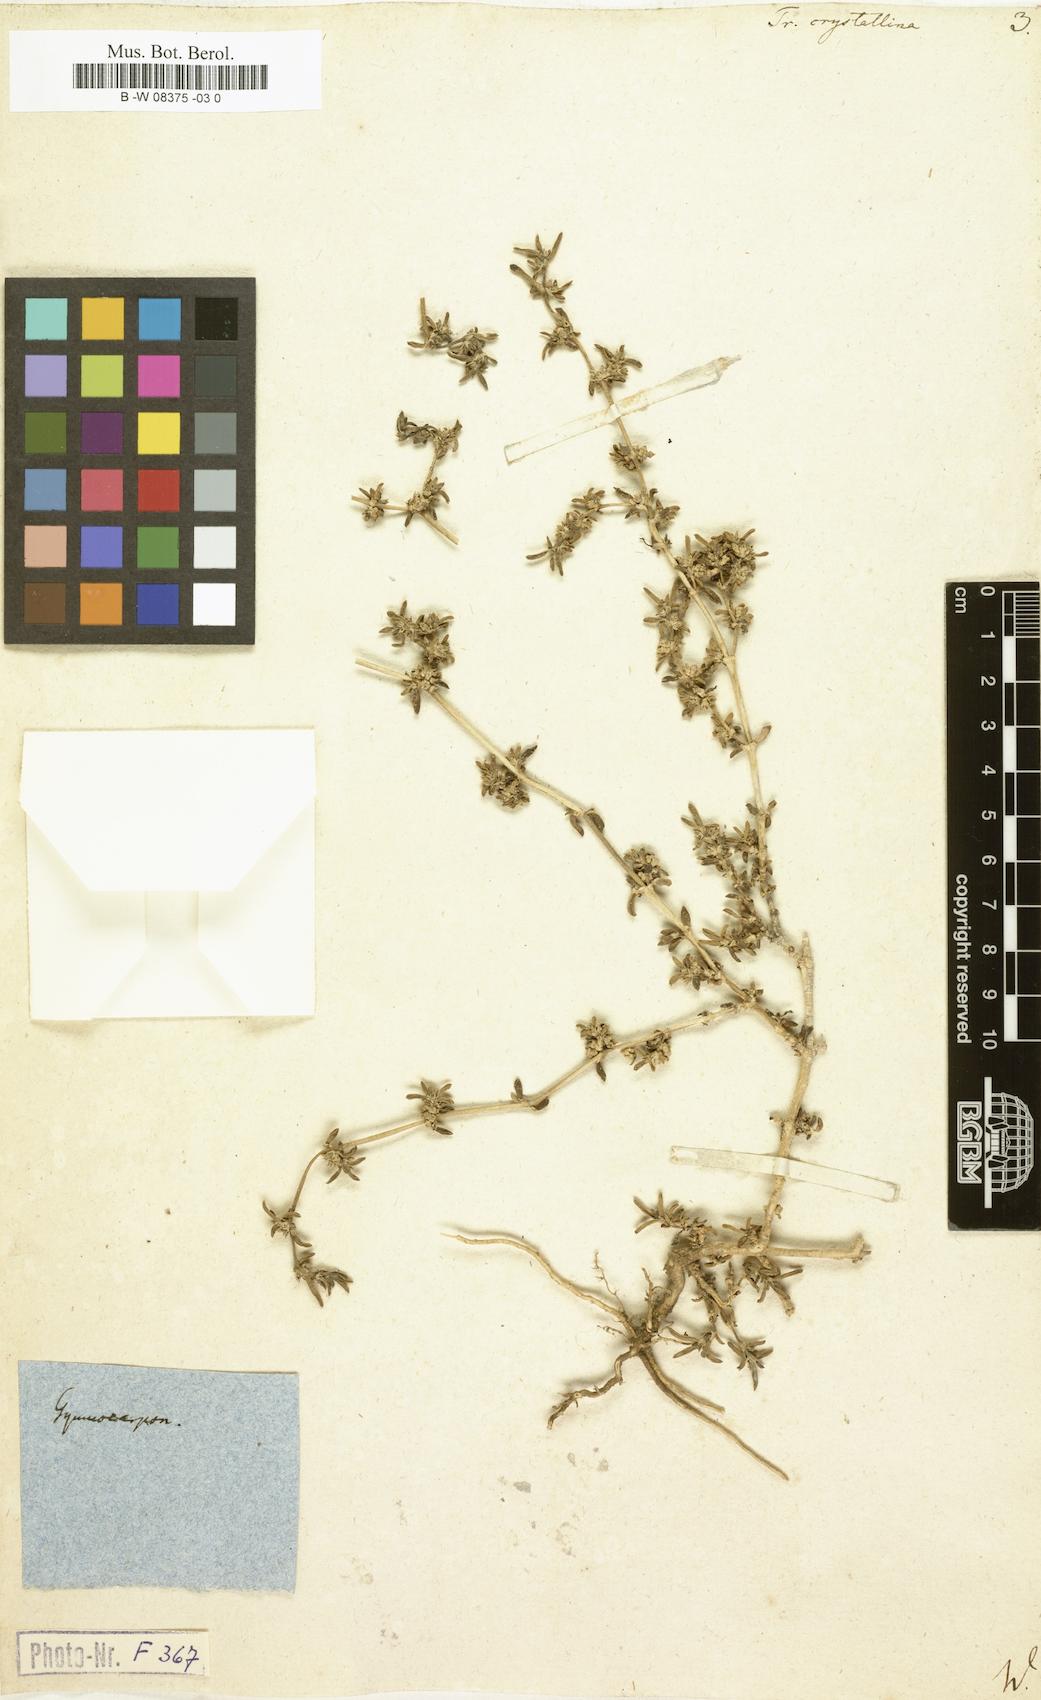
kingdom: Plantae
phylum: Tracheophyta
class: Magnoliopsida
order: Caryophyllales
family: Aizoaceae
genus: Trianthema
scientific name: Trianthema crystallinum
